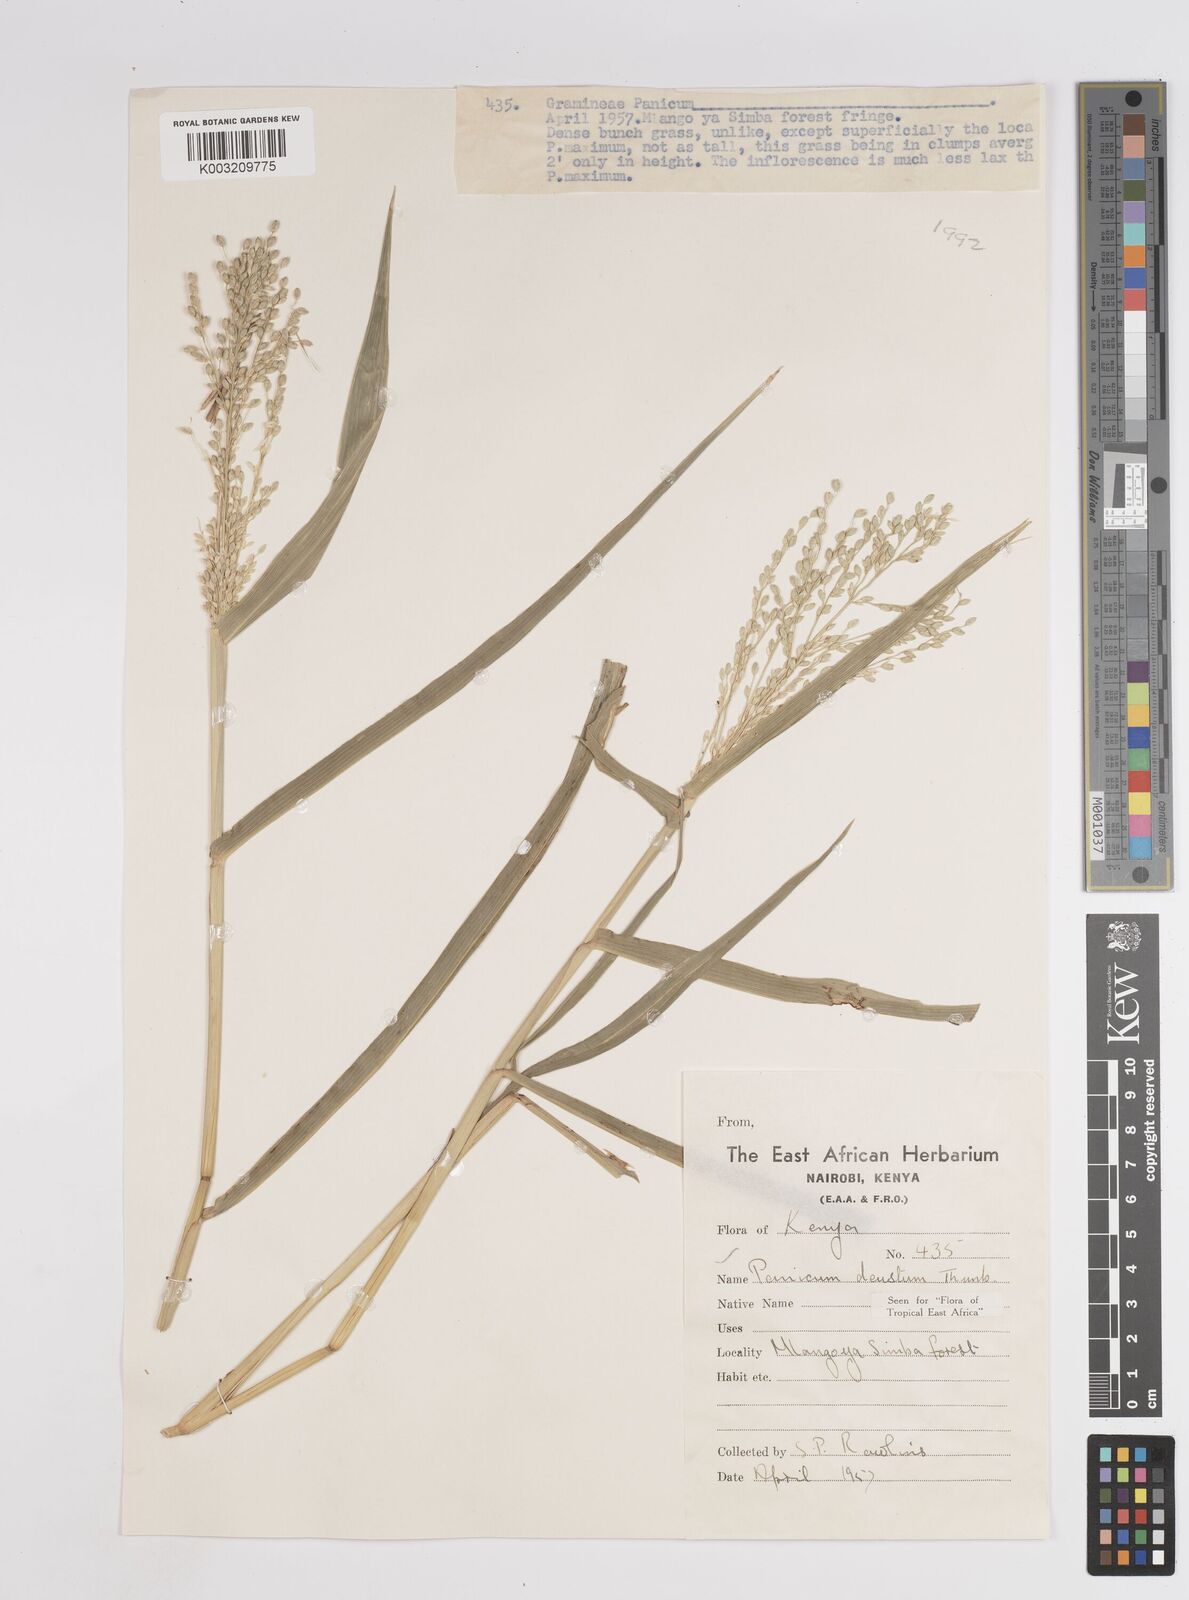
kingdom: Plantae
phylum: Tracheophyta
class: Liliopsida
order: Poales
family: Poaceae
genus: Panicum
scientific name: Panicum
